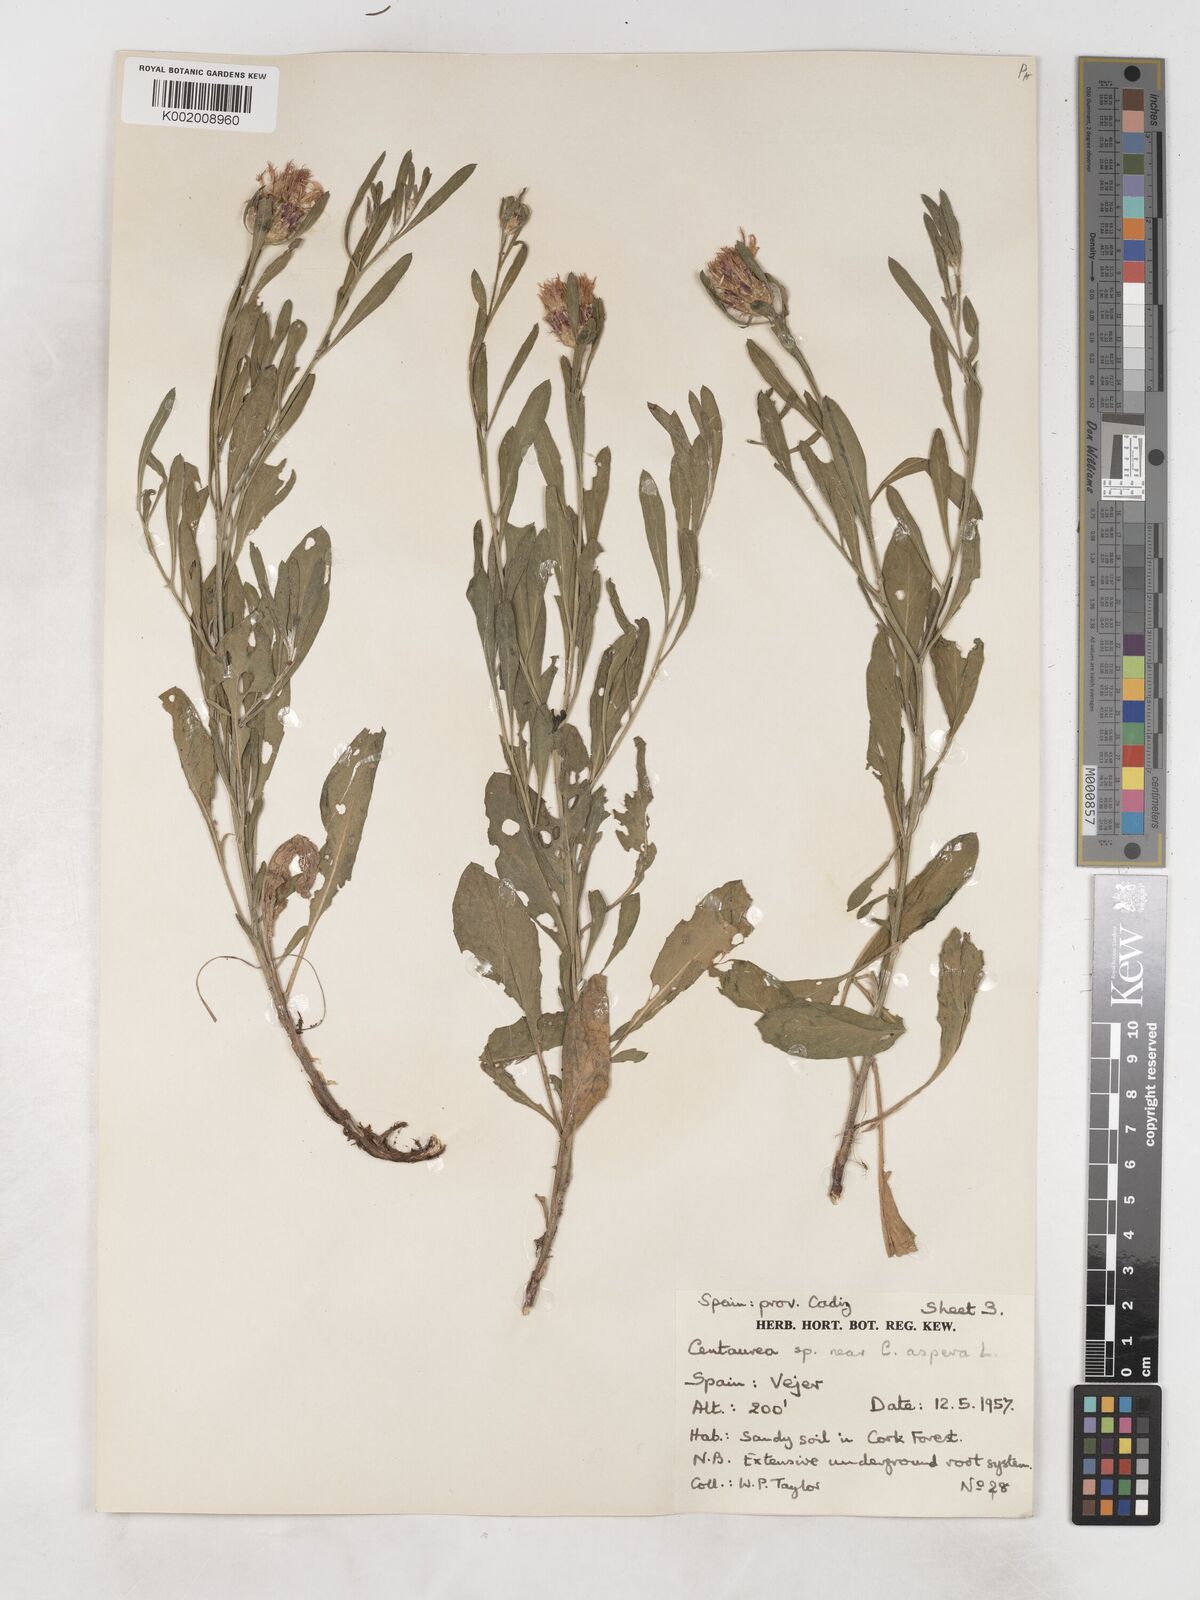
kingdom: Plantae
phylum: Tracheophyta
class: Magnoliopsida
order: Asterales
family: Asteraceae
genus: Centaurea
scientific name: Centaurea aspera
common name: Rough star-thistle
